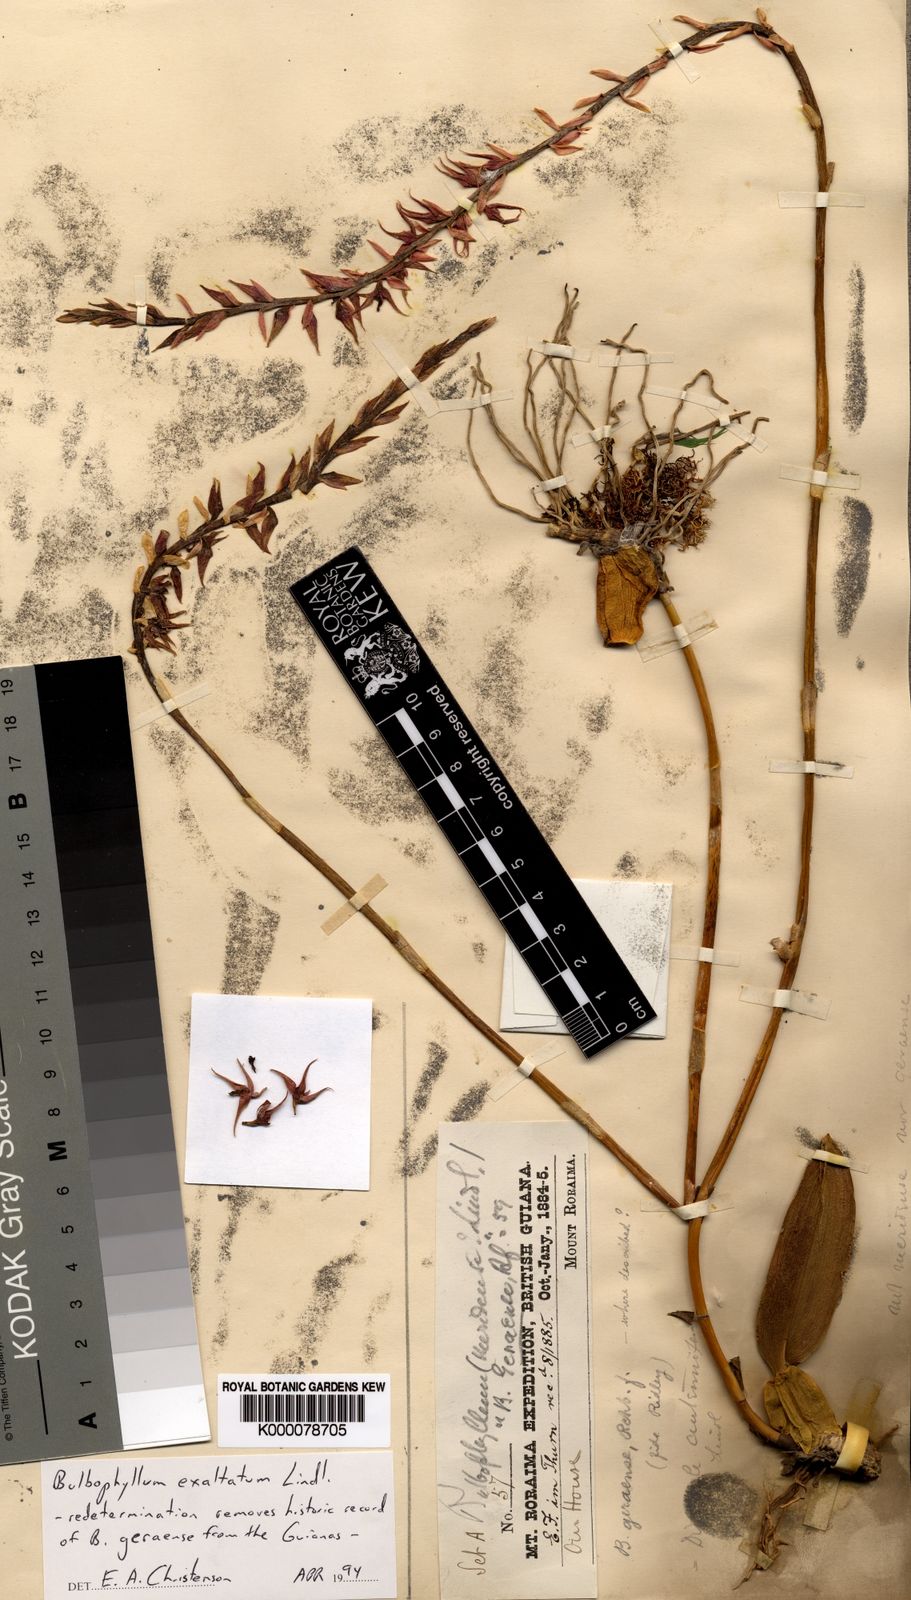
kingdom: Plantae
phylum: Tracheophyta
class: Liliopsida
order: Asparagales
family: Orchidaceae
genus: Bulbophyllum
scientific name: Bulbophyllum exaltatum
